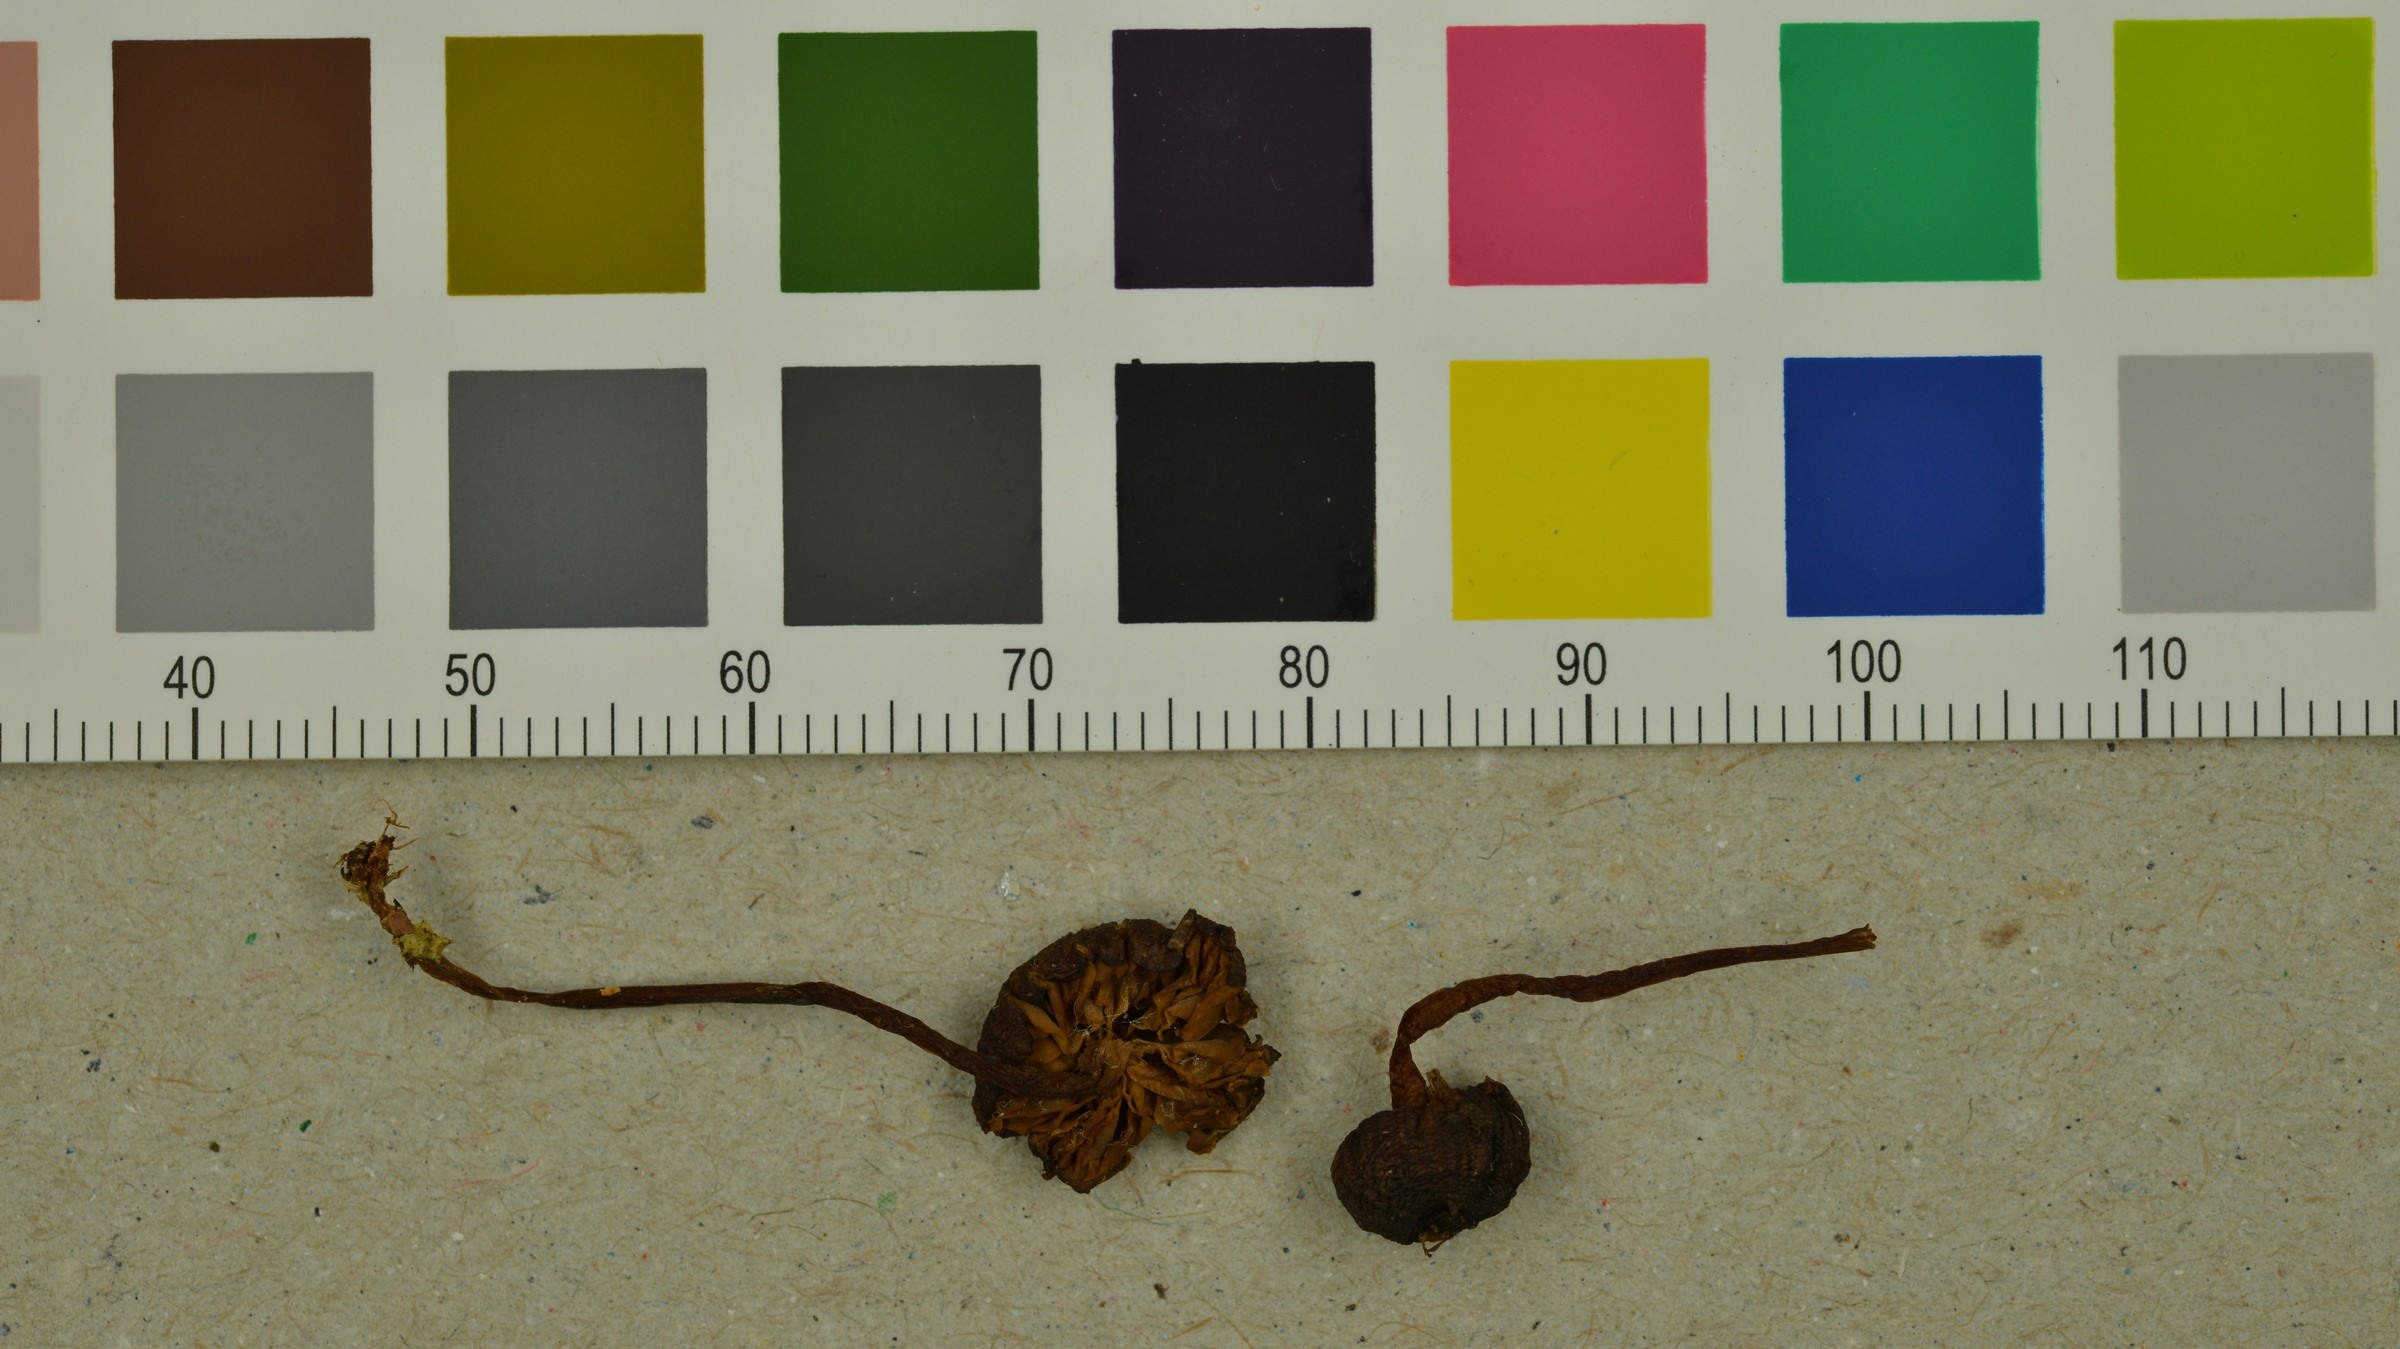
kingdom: Fungi
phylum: Basidiomycota
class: Agaricomycetes
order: Agaricales
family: Entolomataceae
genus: Entoloma
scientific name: Entoloma cocles
